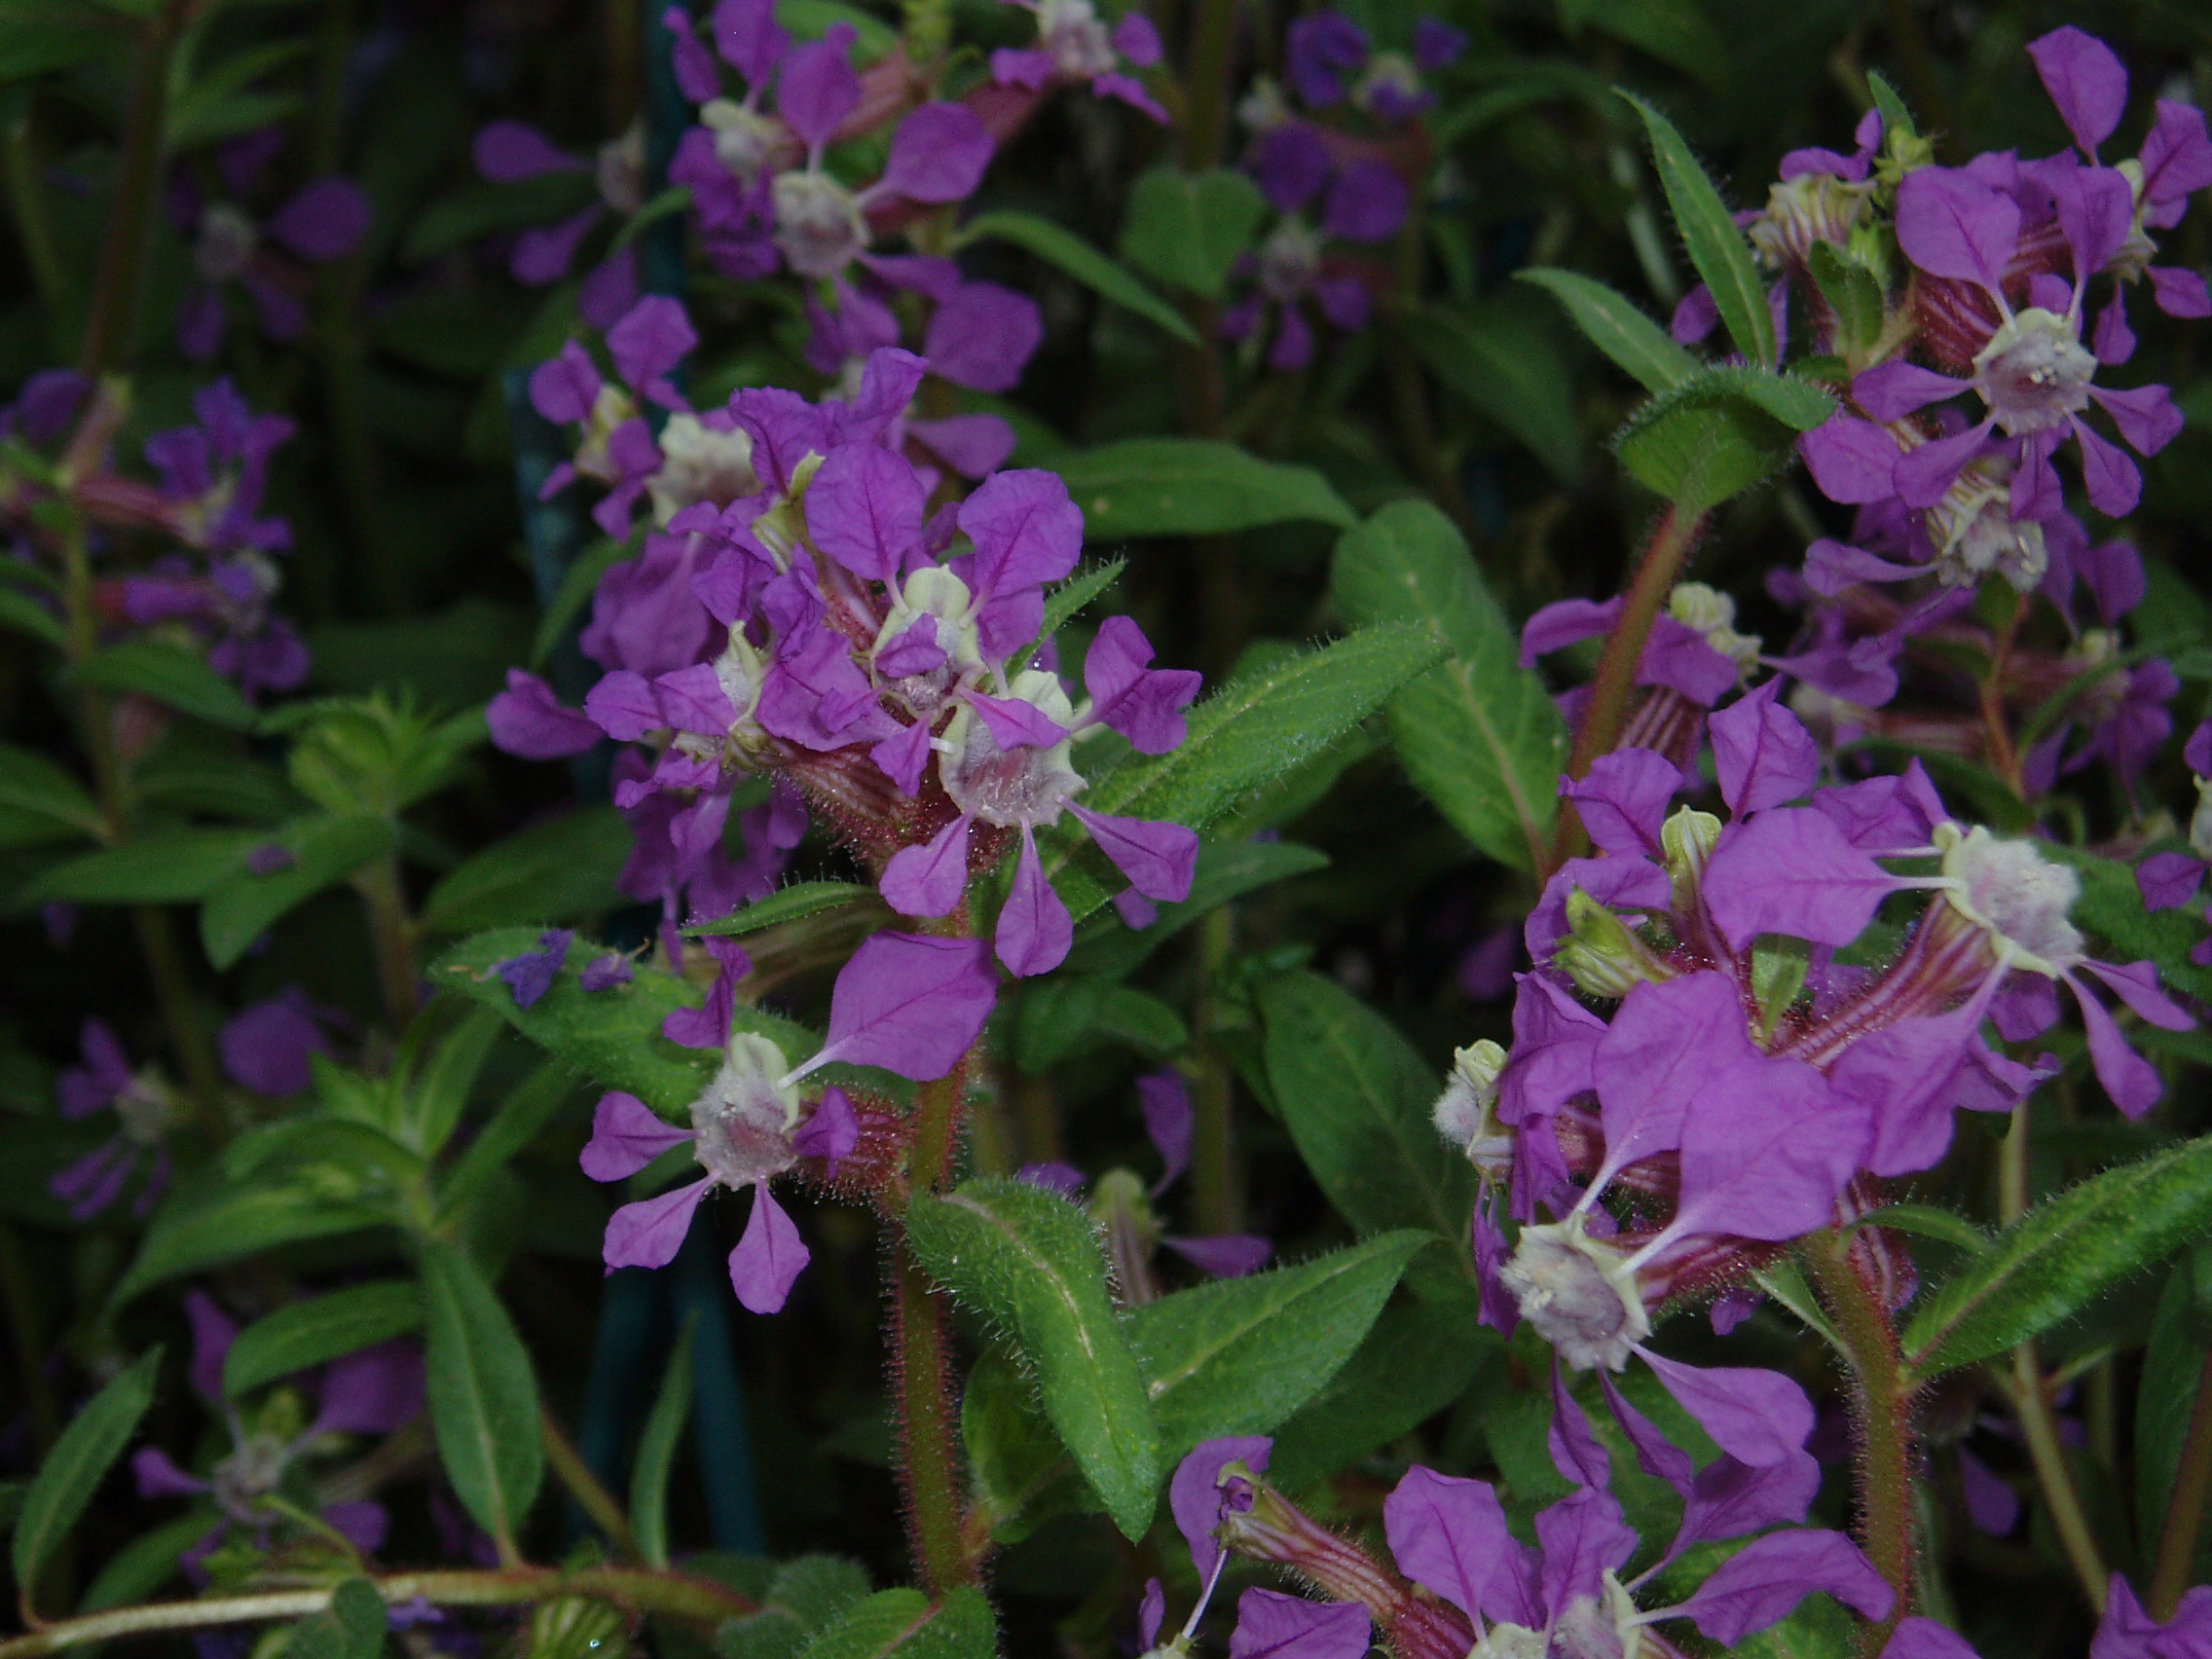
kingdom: Plantae
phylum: Tracheophyta
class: Magnoliopsida
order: Myrtales
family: Lythraceae
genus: Cuphea
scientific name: Cuphea procumbens
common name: Creeping waxweed
